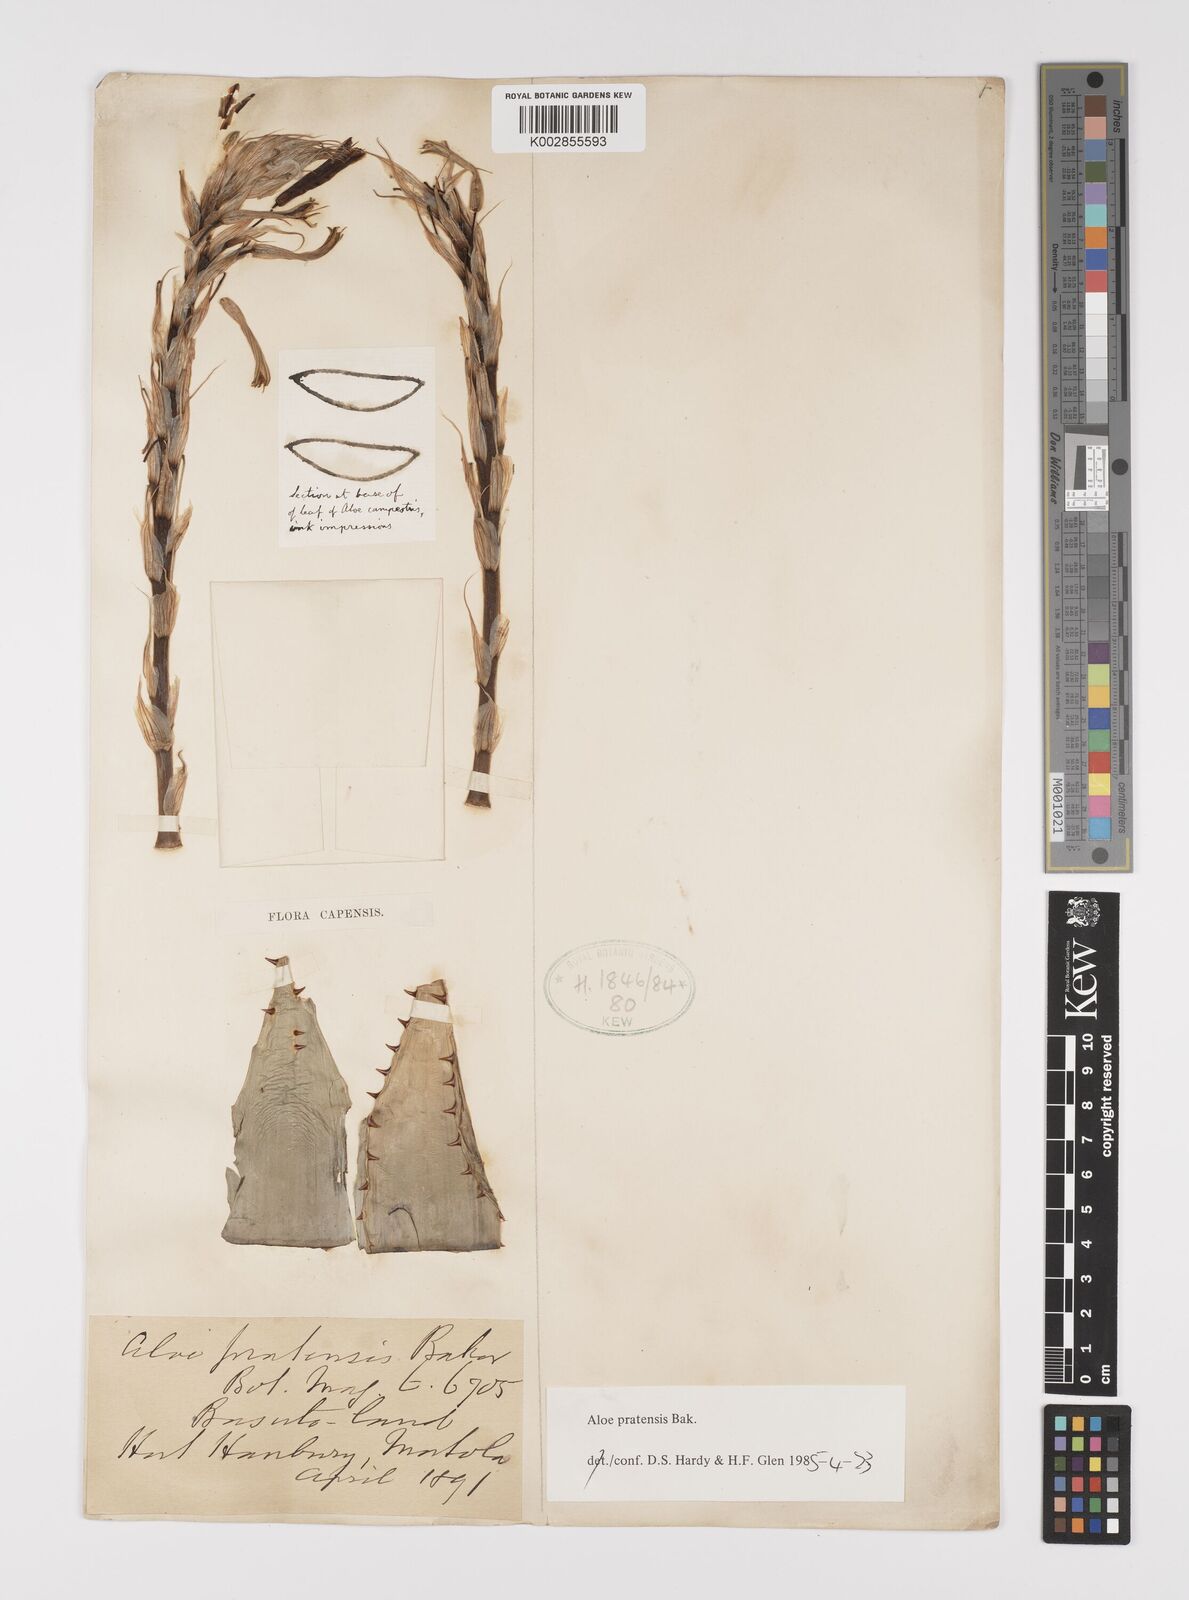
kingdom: Plantae
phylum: Tracheophyta
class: Liliopsida
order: Asparagales
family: Asphodelaceae
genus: Aloe
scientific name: Aloe pratensis
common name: Meadow aloe
